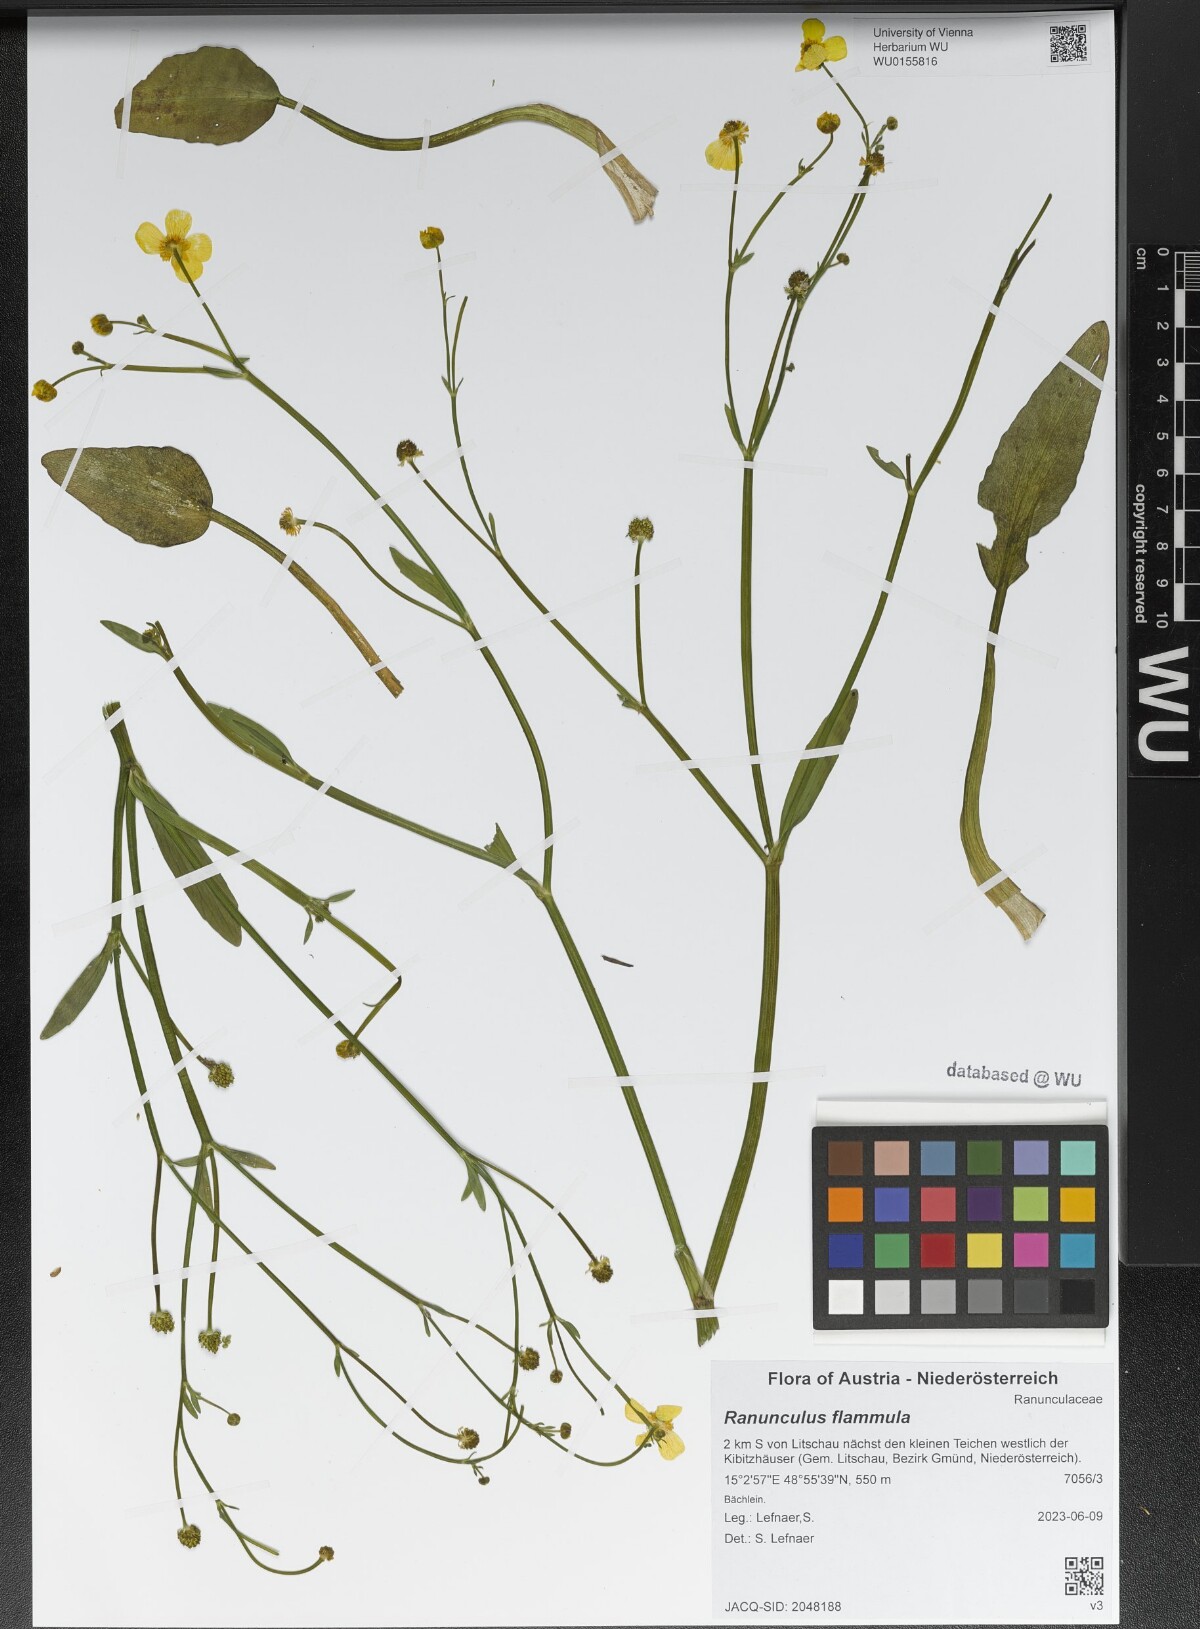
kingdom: Plantae
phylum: Tracheophyta
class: Magnoliopsida
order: Ranunculales
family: Ranunculaceae
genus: Ranunculus
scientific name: Ranunculus flammula
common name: Lesser spearwort
